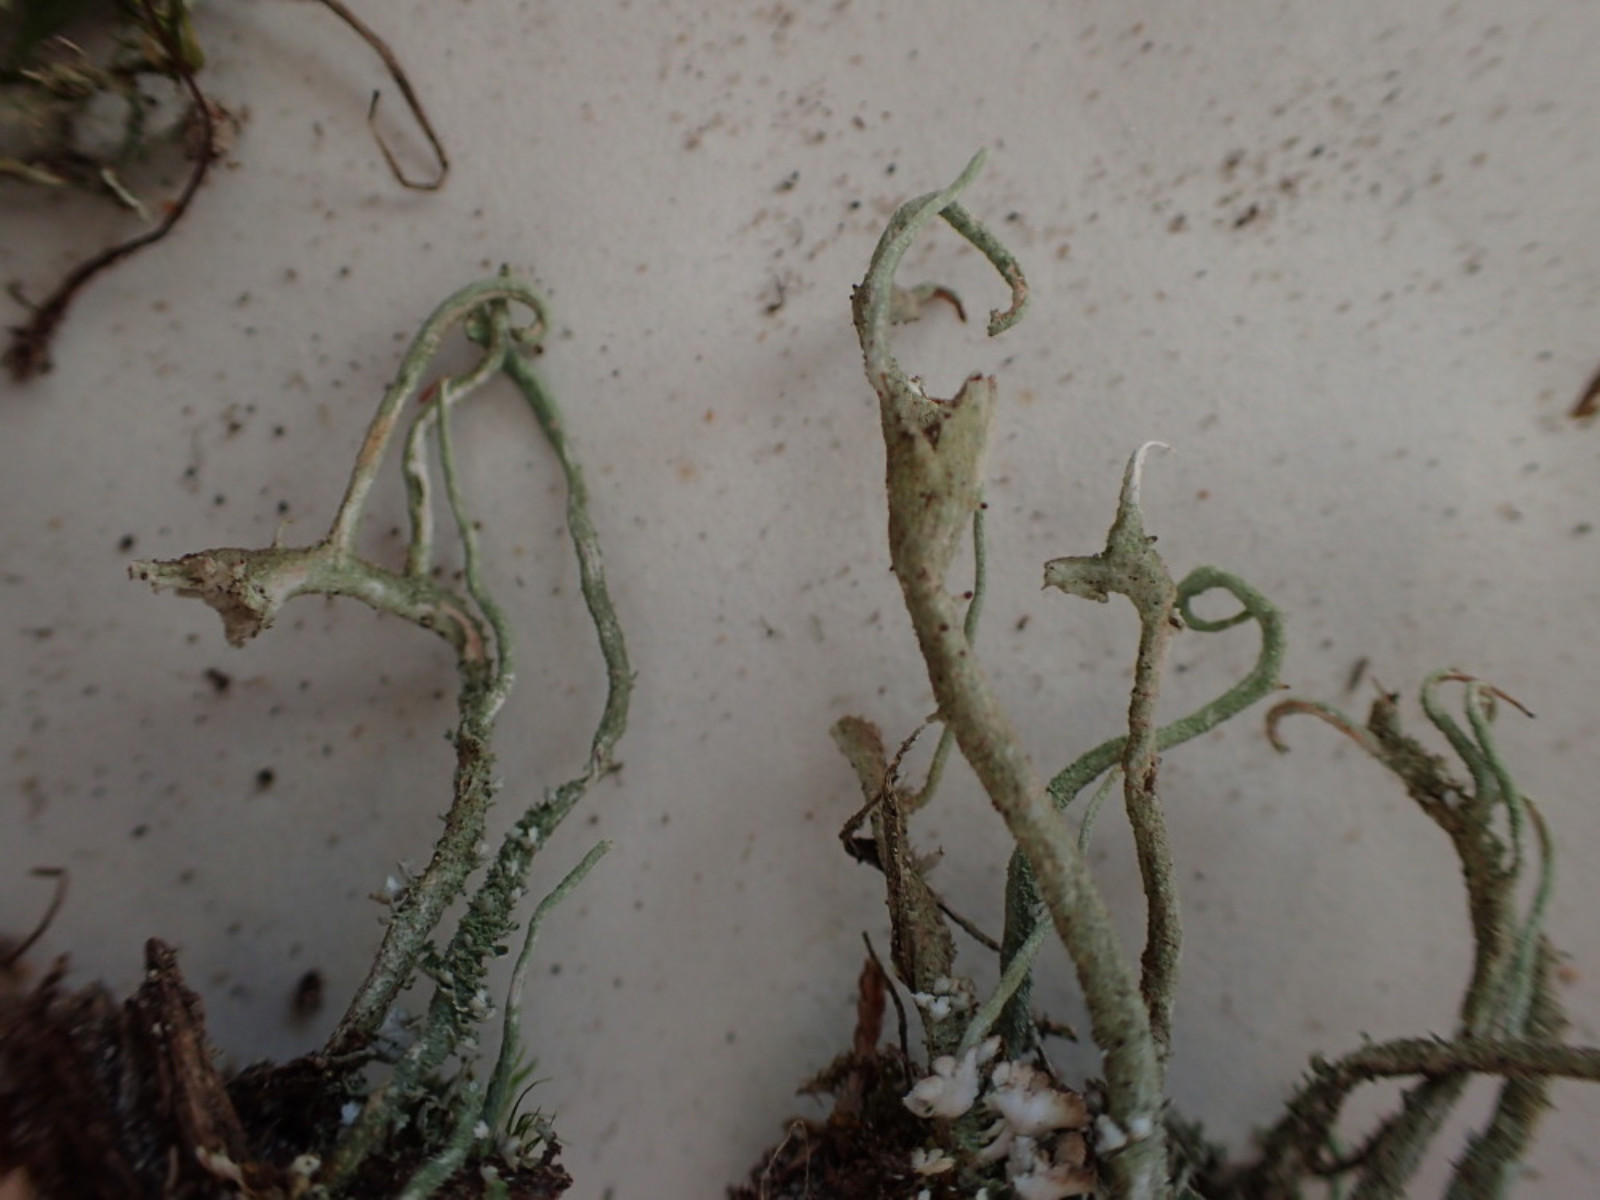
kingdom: Fungi
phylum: Ascomycota
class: Lecanoromycetes
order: Lecanorales
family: Cladoniaceae
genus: Cladonia
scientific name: Cladonia subulata
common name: spids bægerlav
